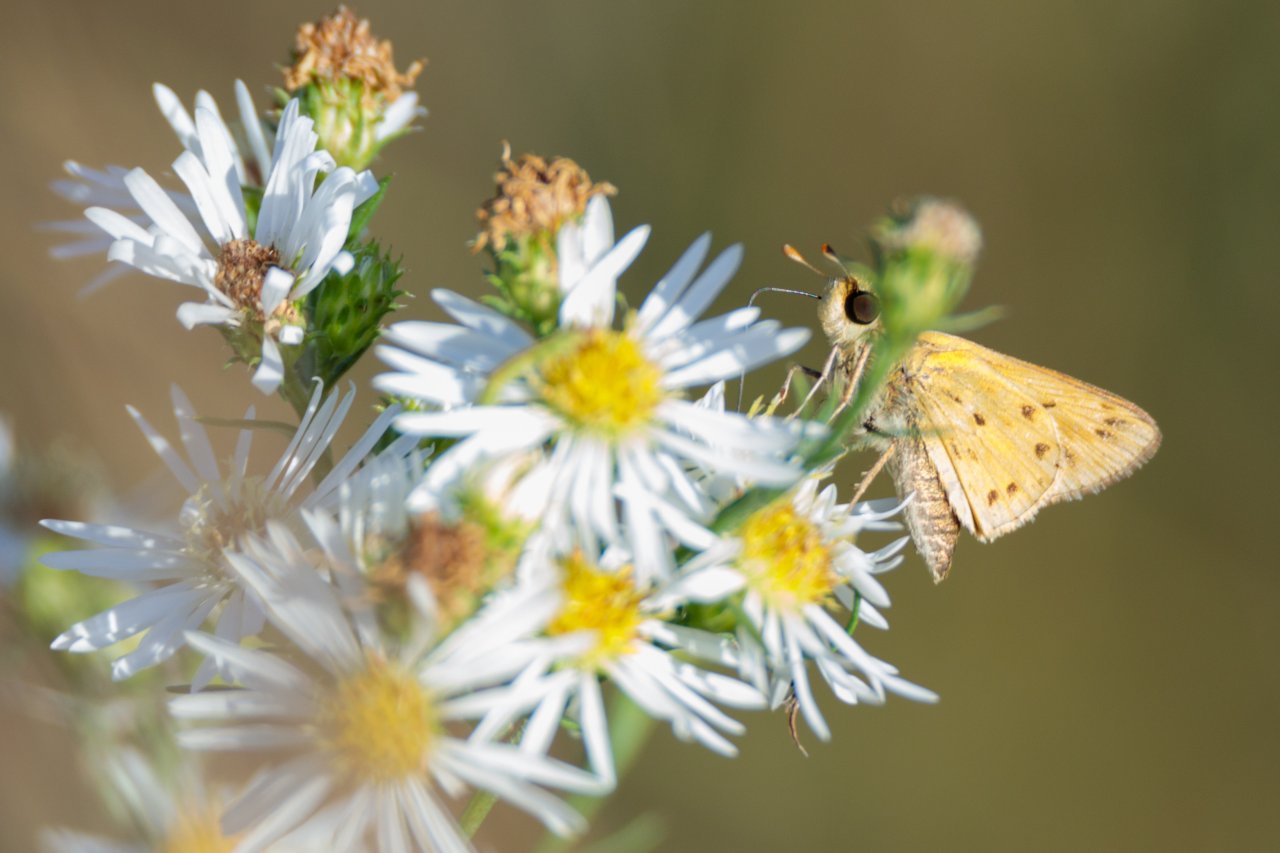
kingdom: Animalia
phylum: Arthropoda
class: Insecta
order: Lepidoptera
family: Hesperiidae
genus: Hylephila
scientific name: Hylephila phyleus
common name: Fiery Skipper
